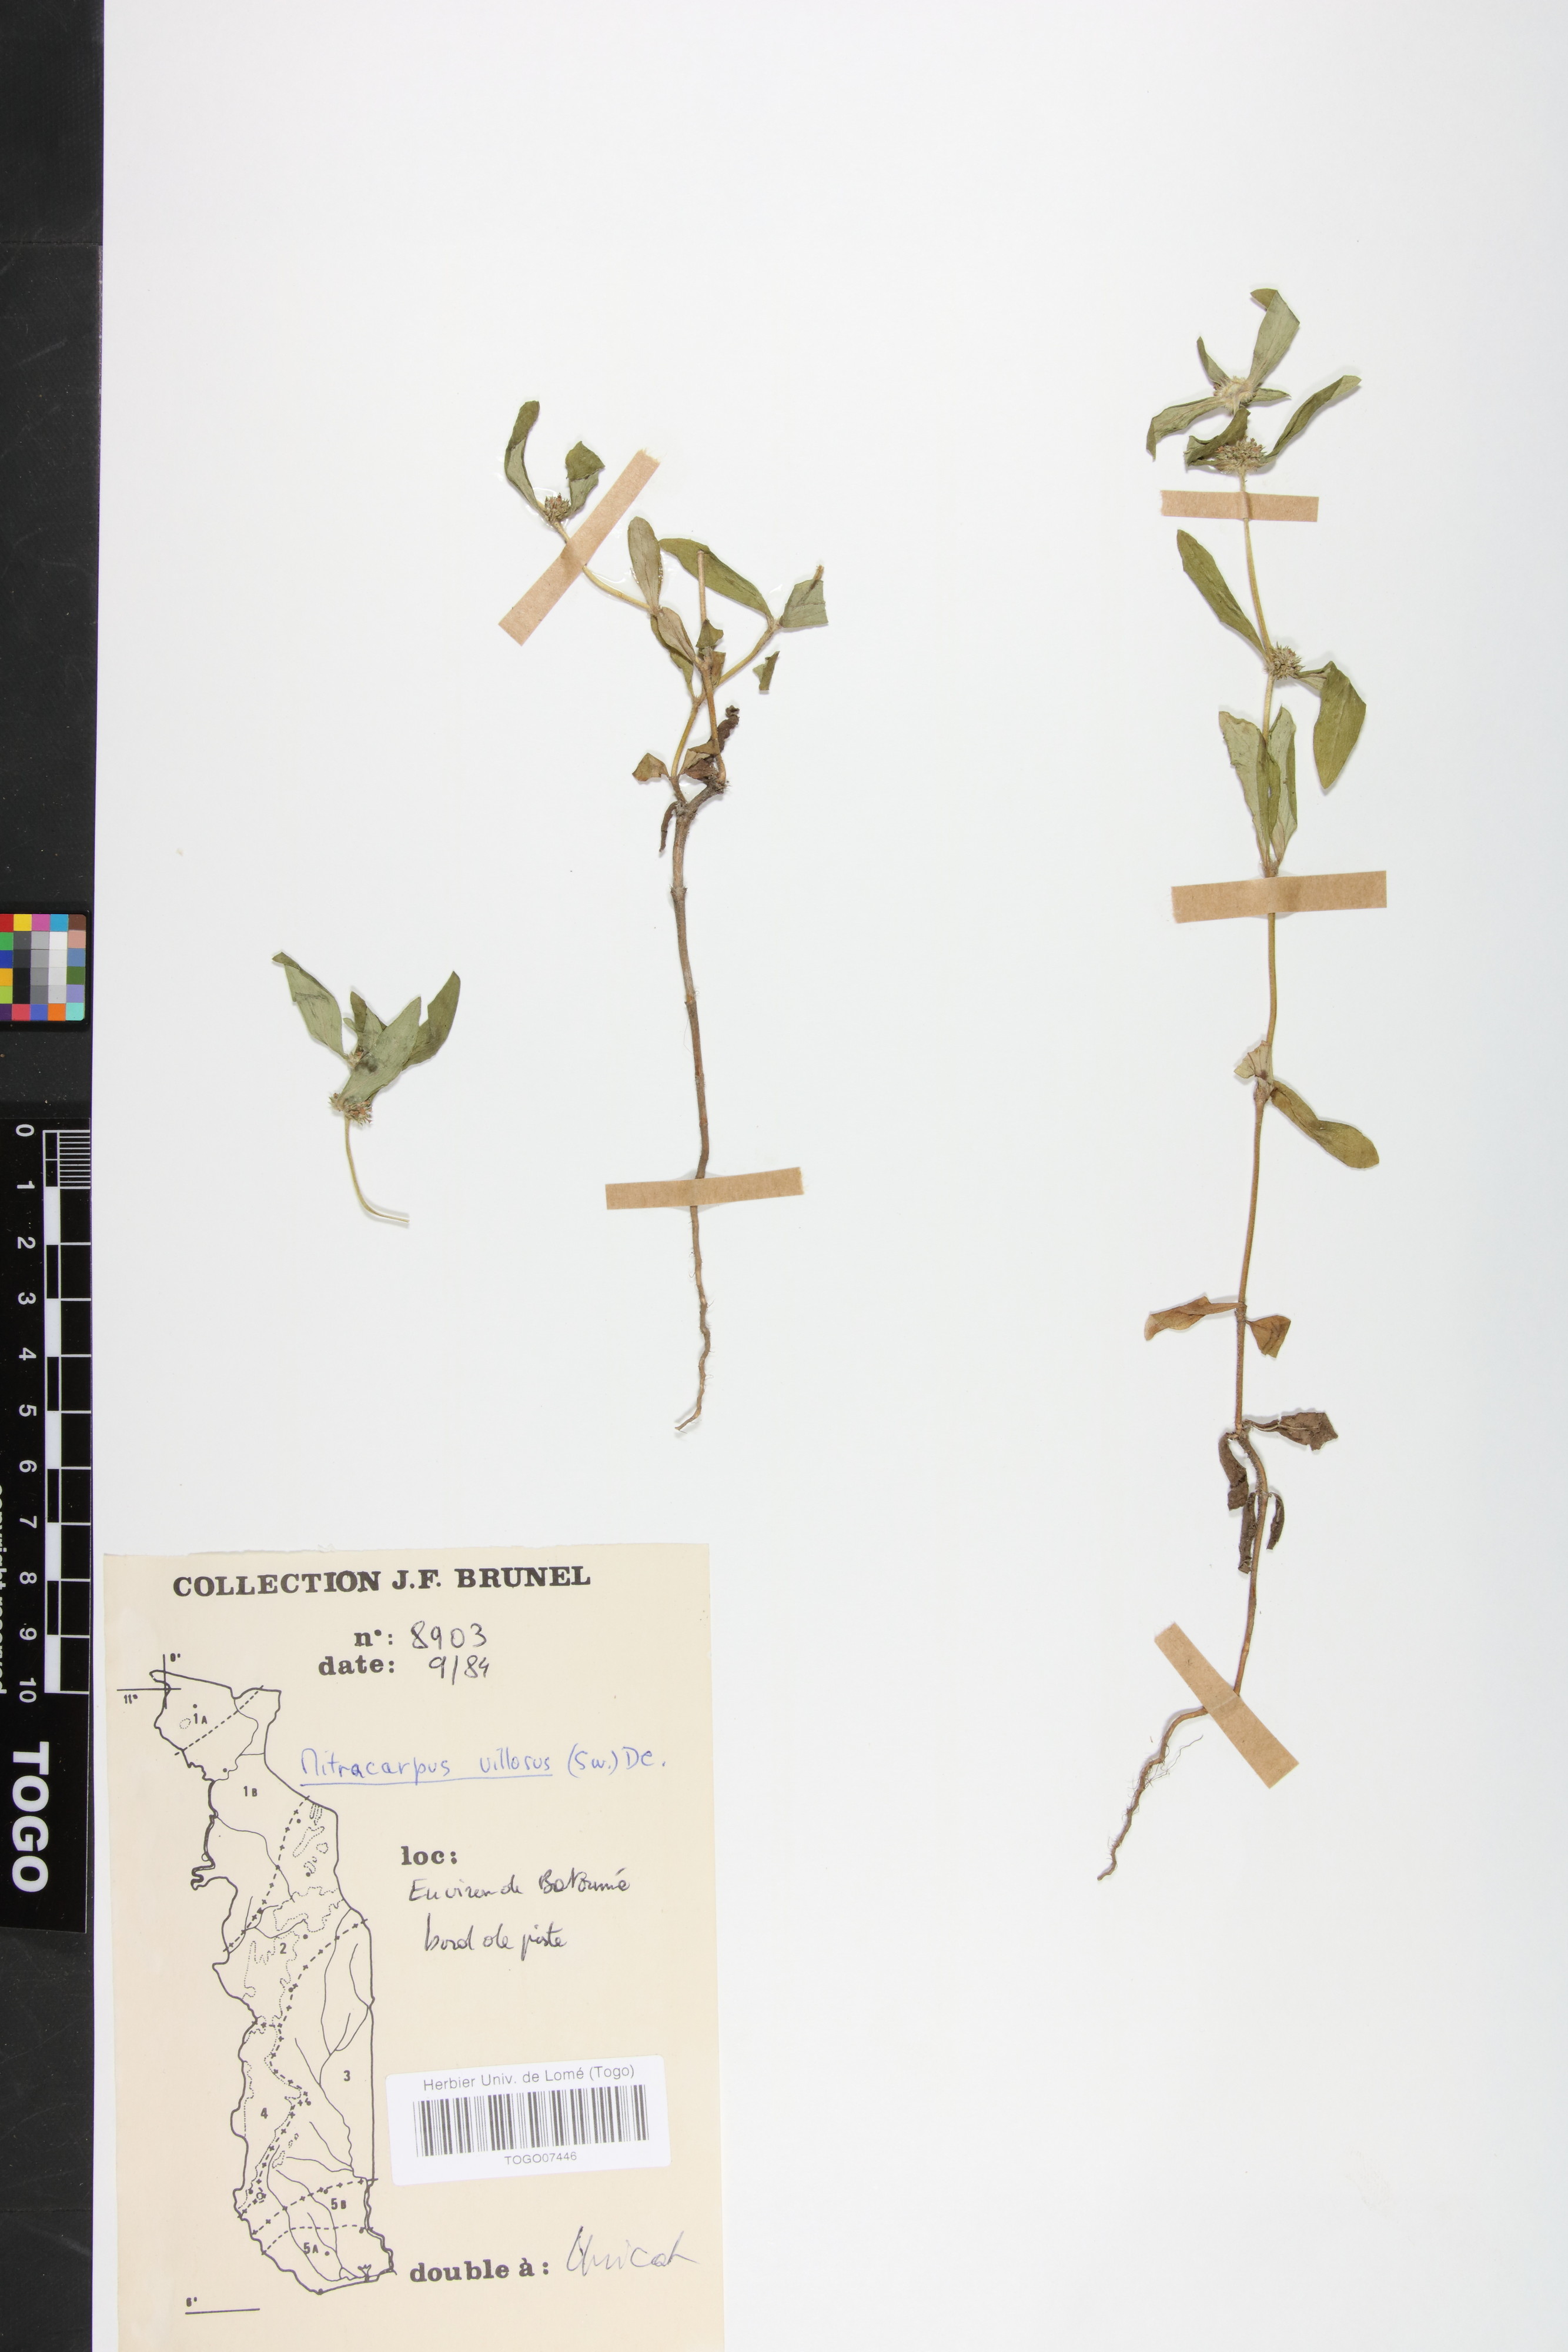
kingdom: Plantae
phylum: Tracheophyta
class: Magnoliopsida
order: Gentianales
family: Rubiaceae
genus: Mitracarpus
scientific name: Mitracarpus hirtus
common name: Tropical girdlepod
